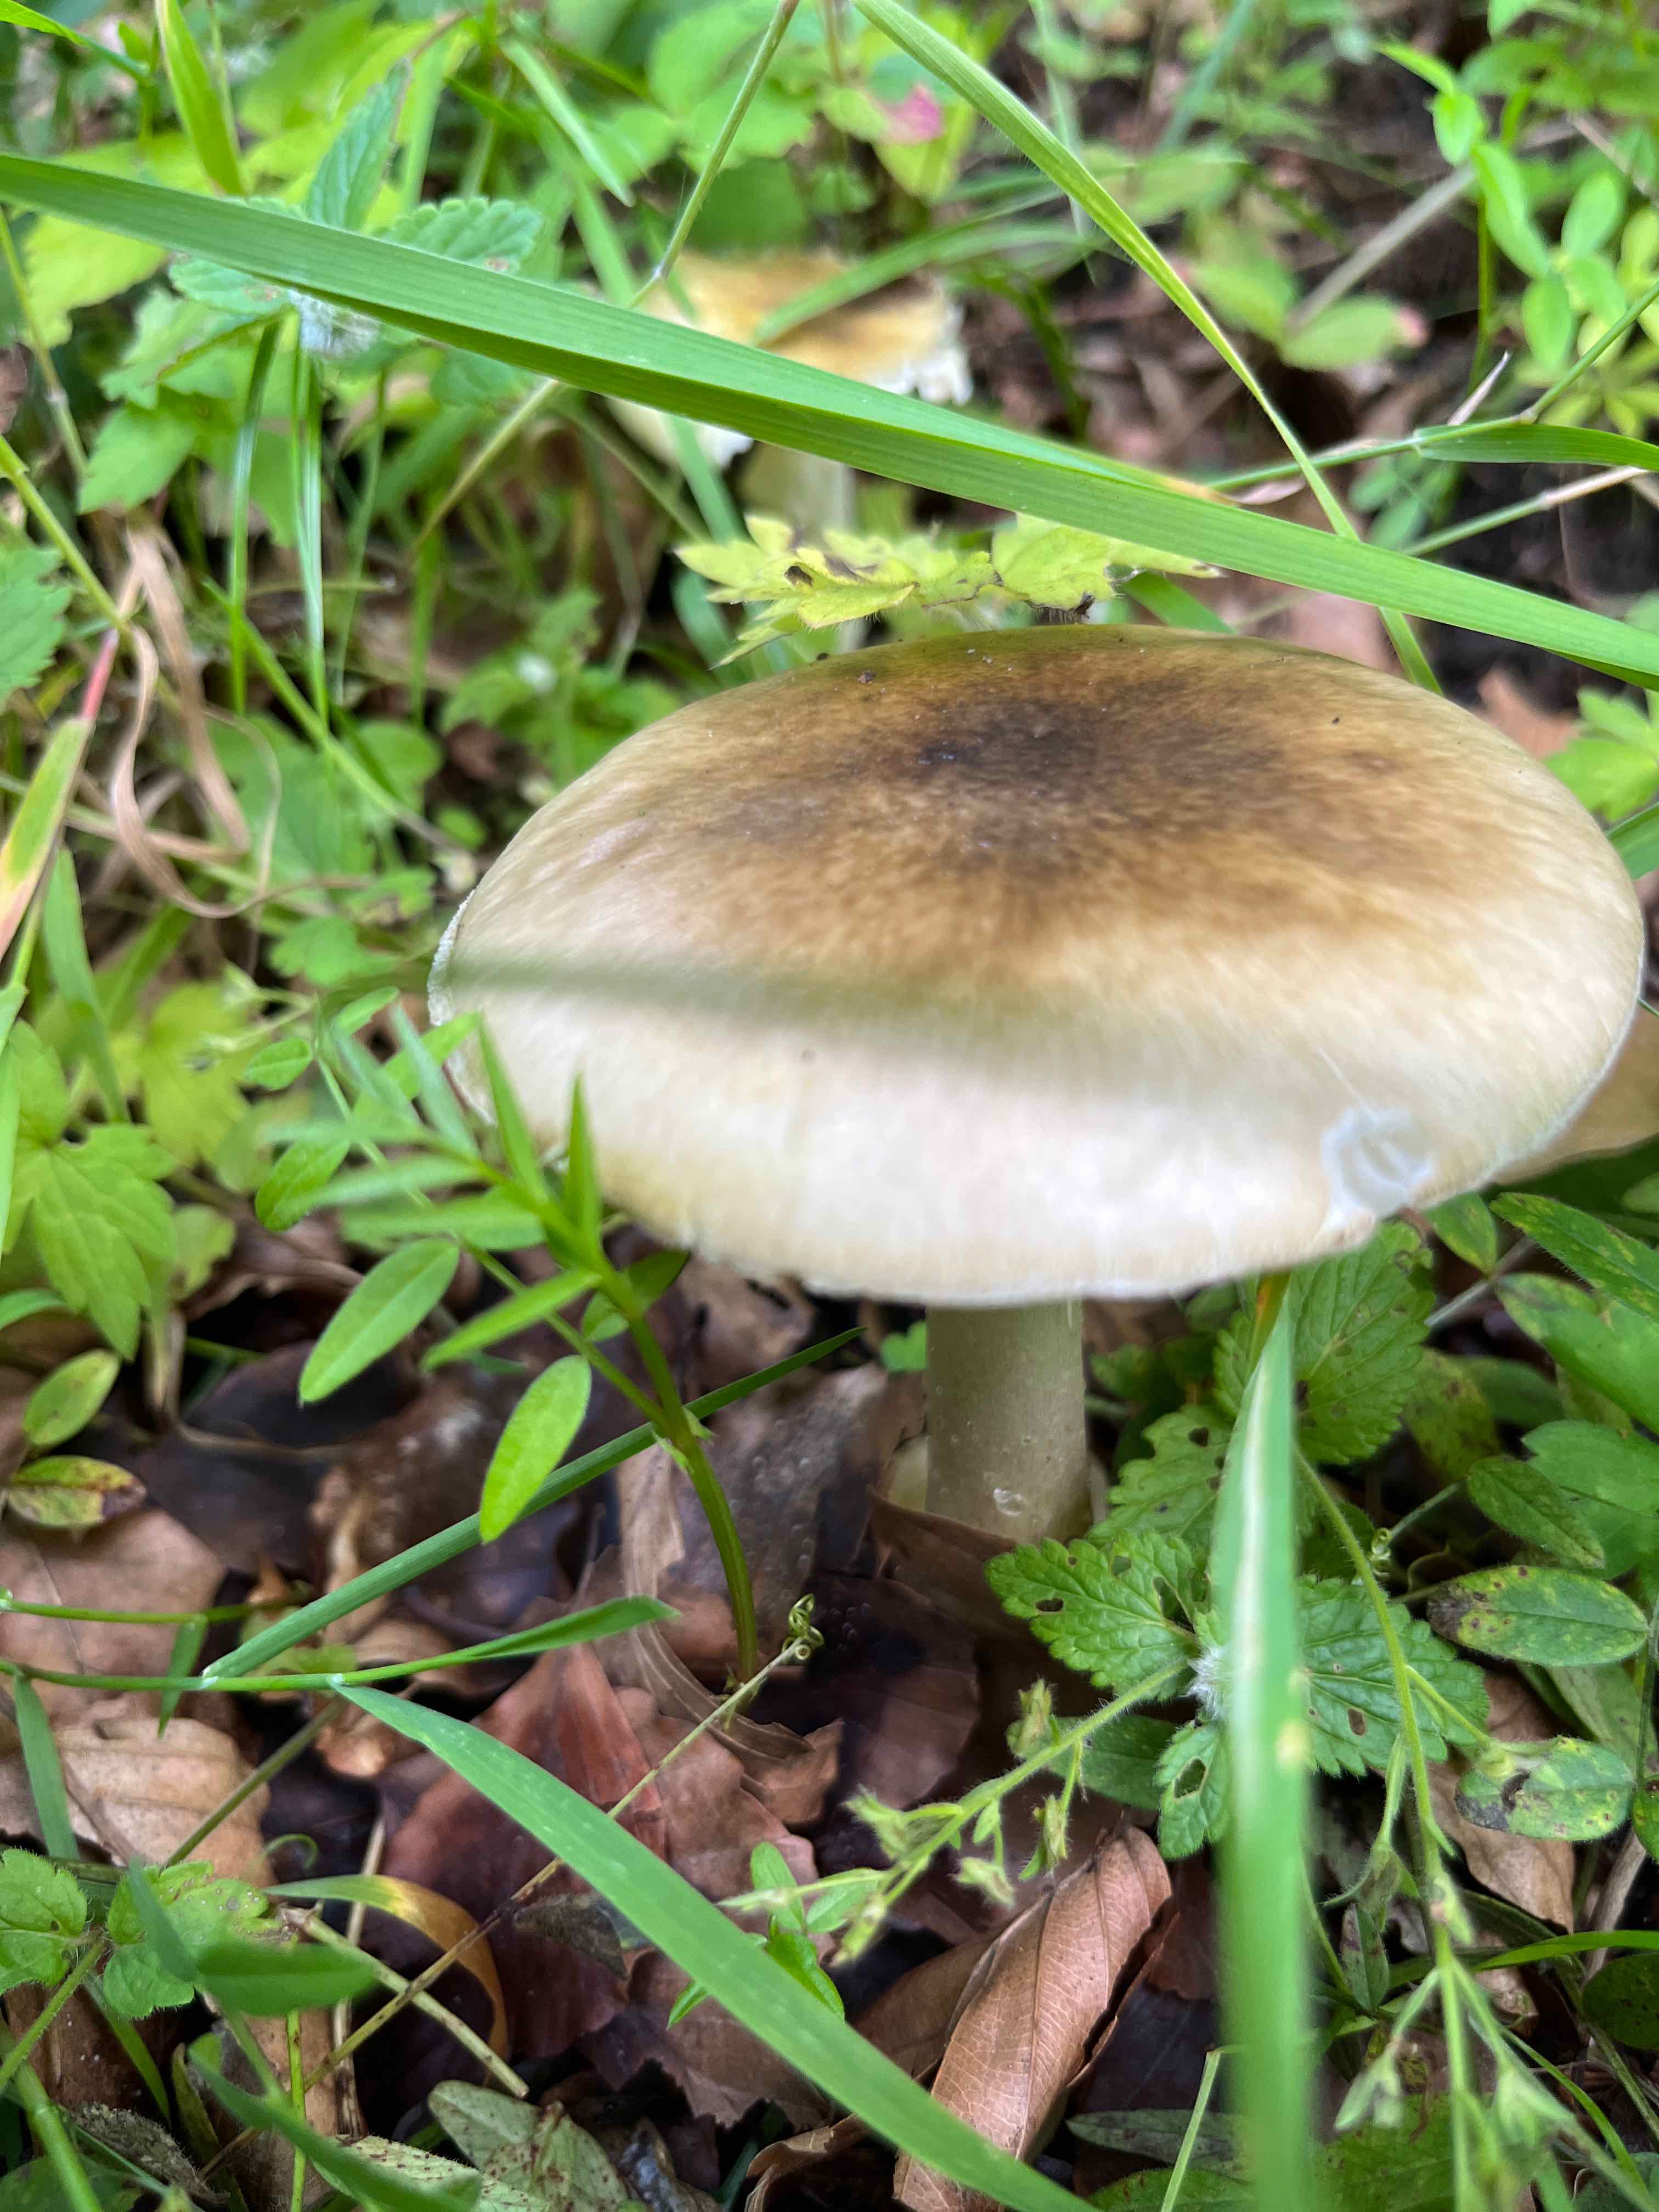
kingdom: Fungi
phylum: Basidiomycota
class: Agaricomycetes
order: Agaricales
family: Amanitaceae
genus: Amanita
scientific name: Amanita phalloides
